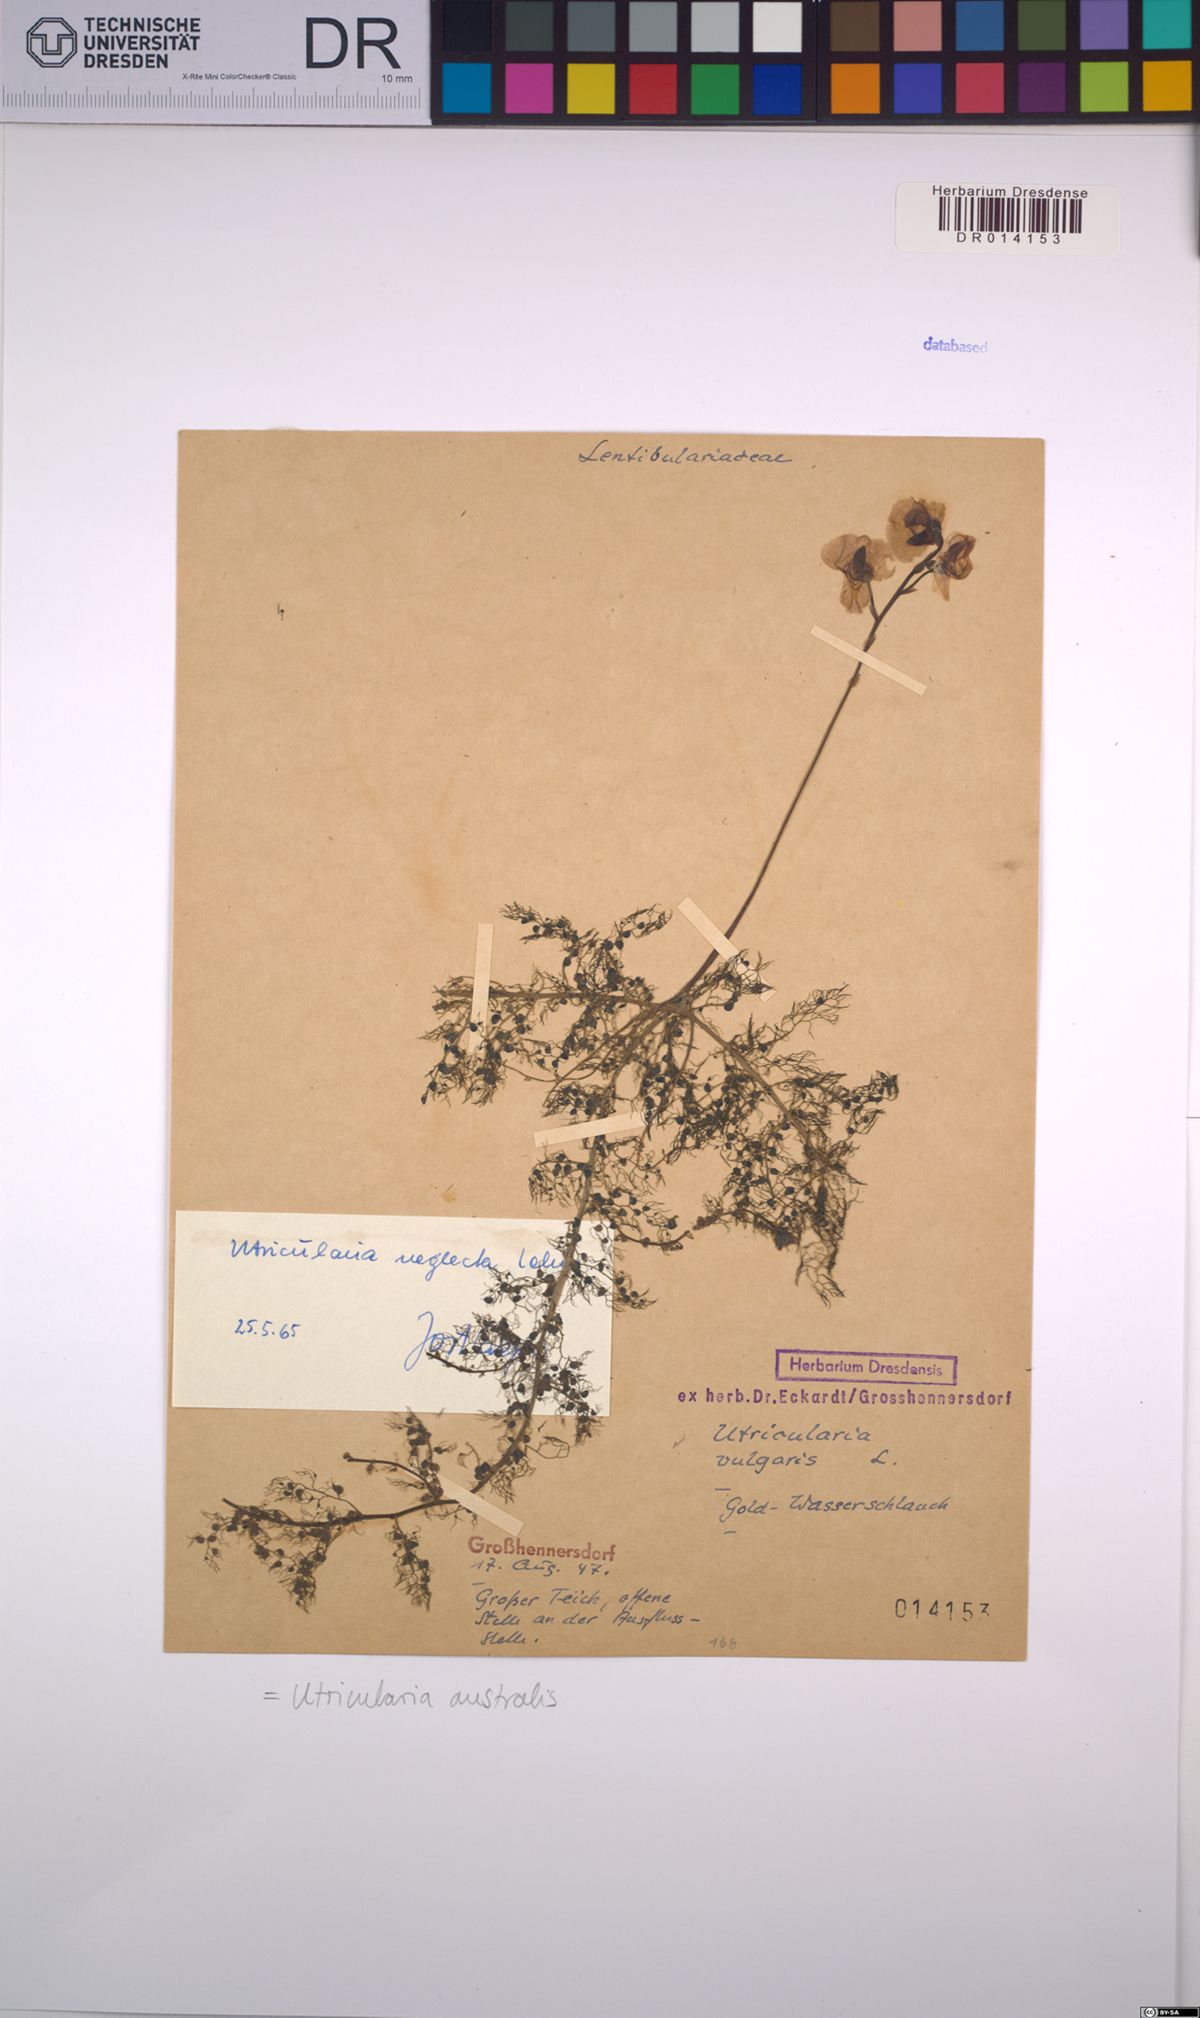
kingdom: Plantae
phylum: Tracheophyta
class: Magnoliopsida
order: Lamiales
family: Lentibulariaceae
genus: Utricularia
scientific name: Utricularia australis
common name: Bladderwort
